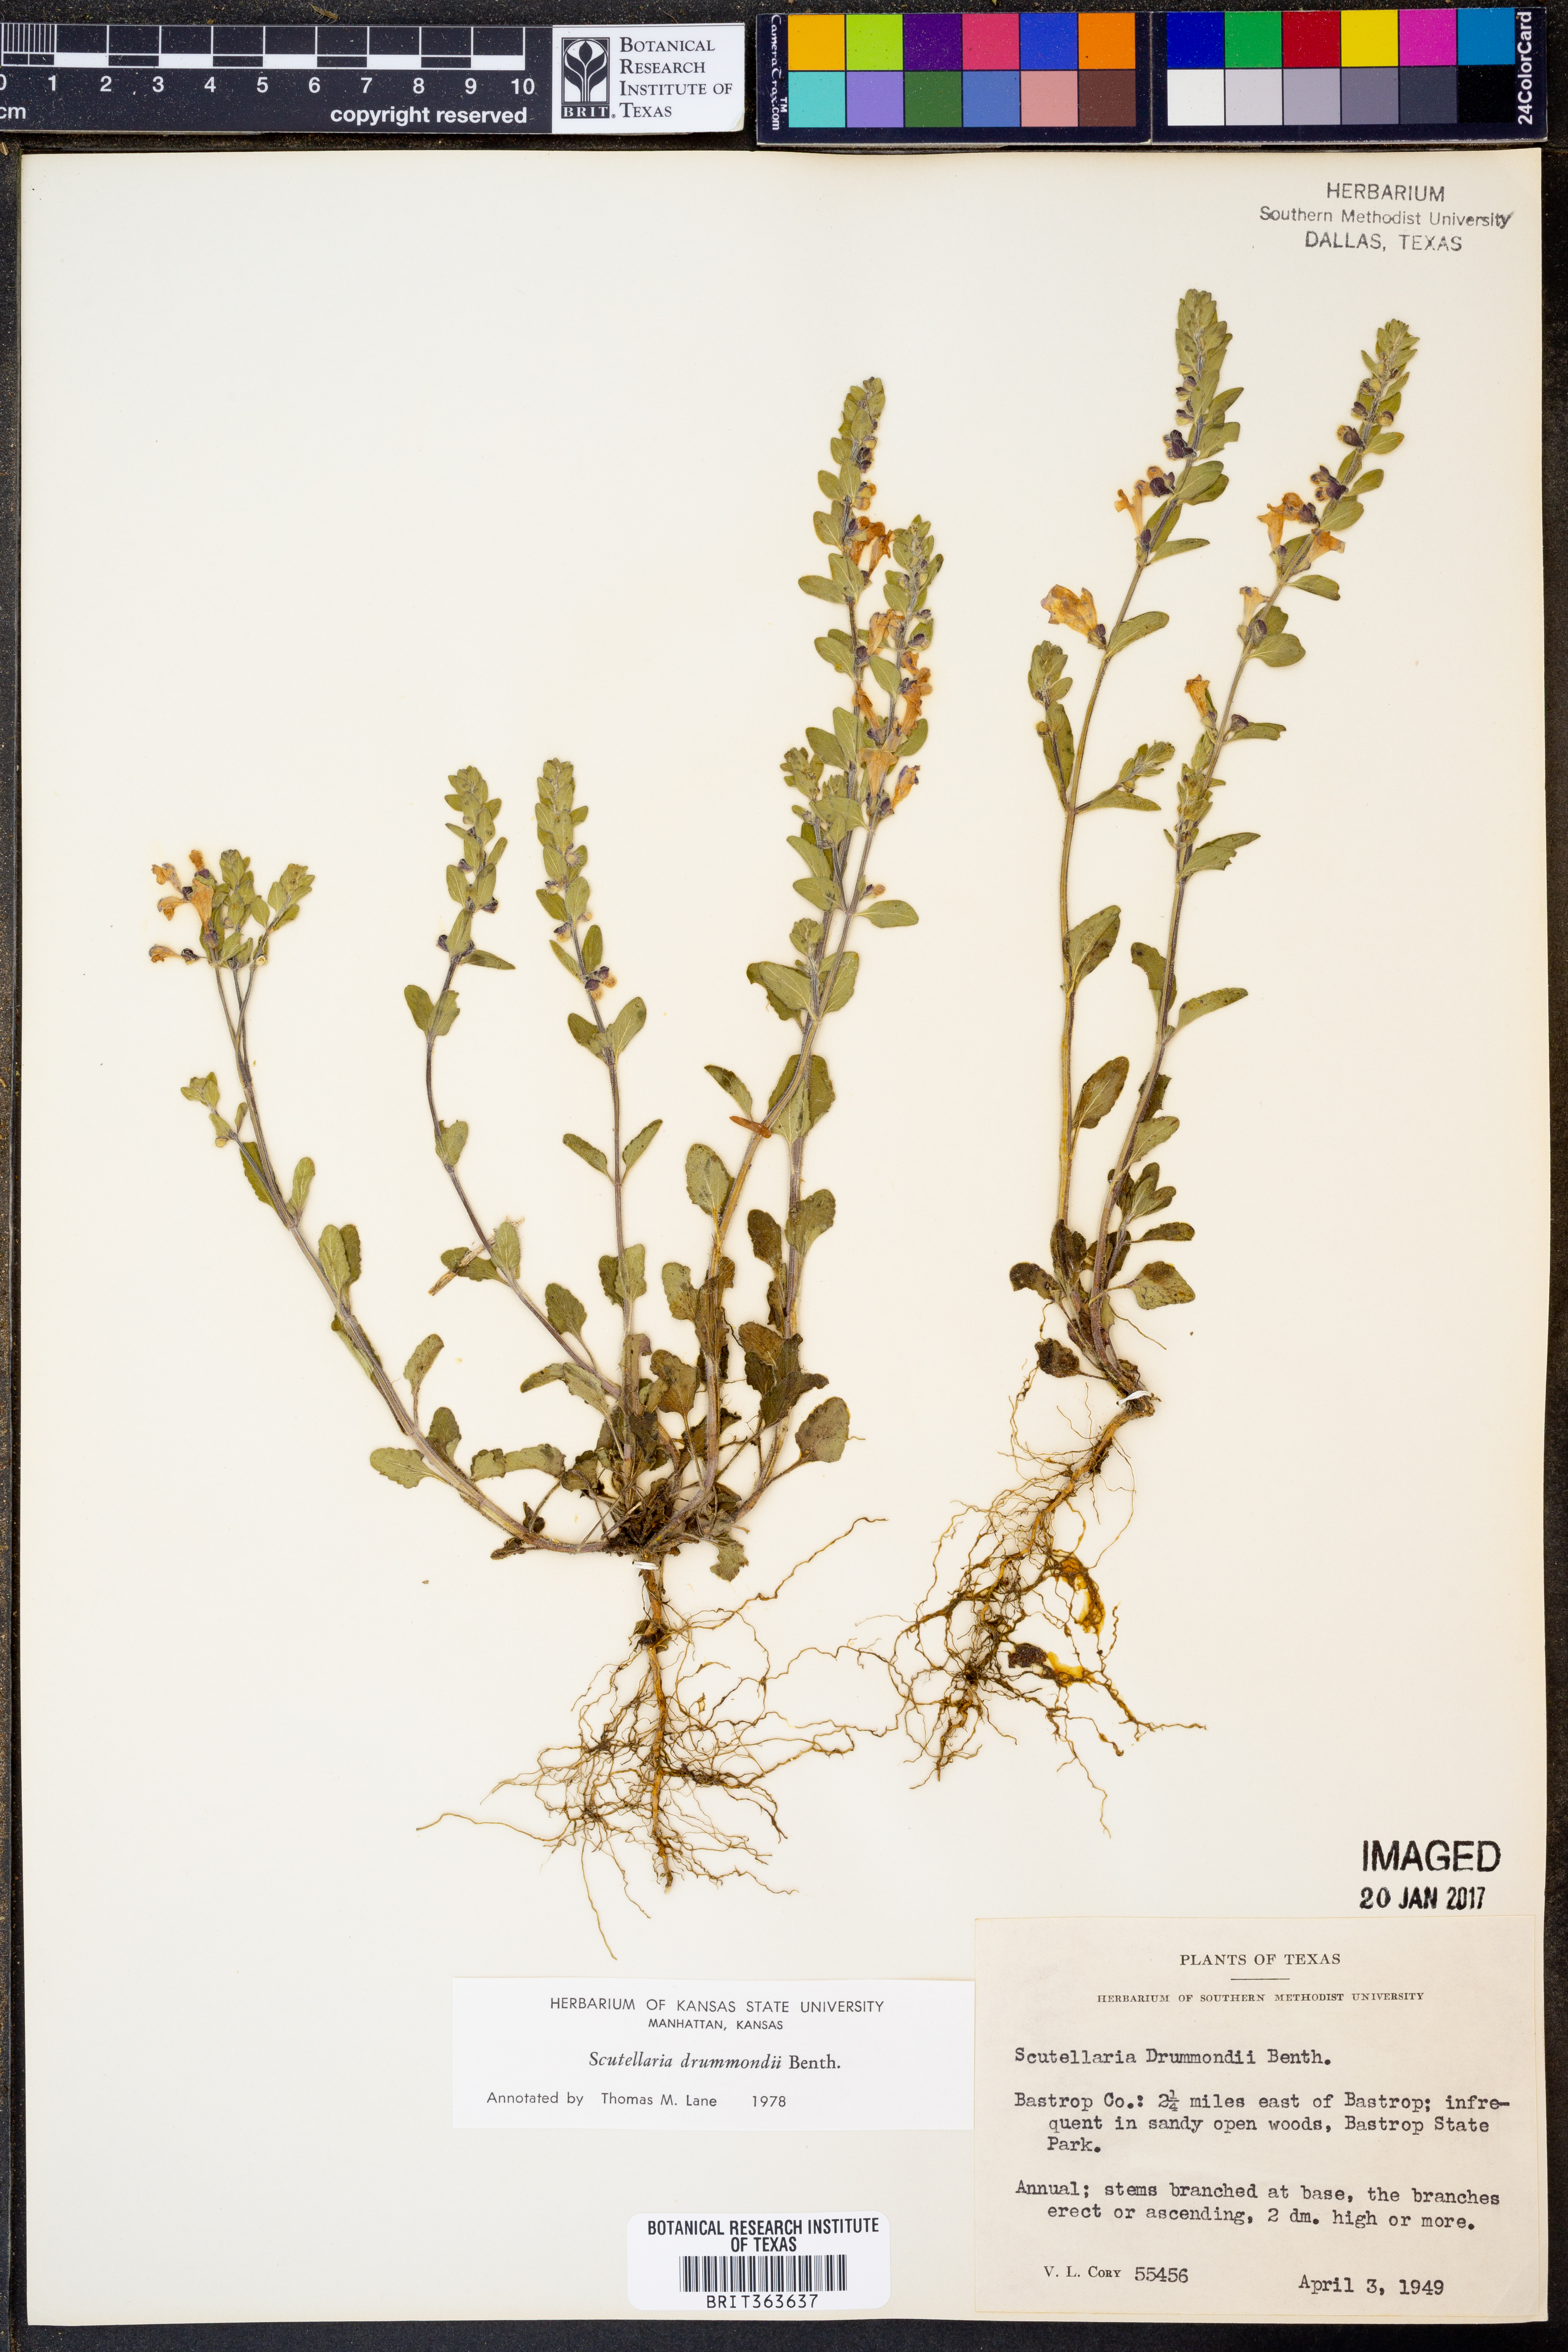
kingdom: Plantae
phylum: Tracheophyta
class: Magnoliopsida
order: Lamiales
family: Lamiaceae
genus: Scutellaria
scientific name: Scutellaria drummondii
